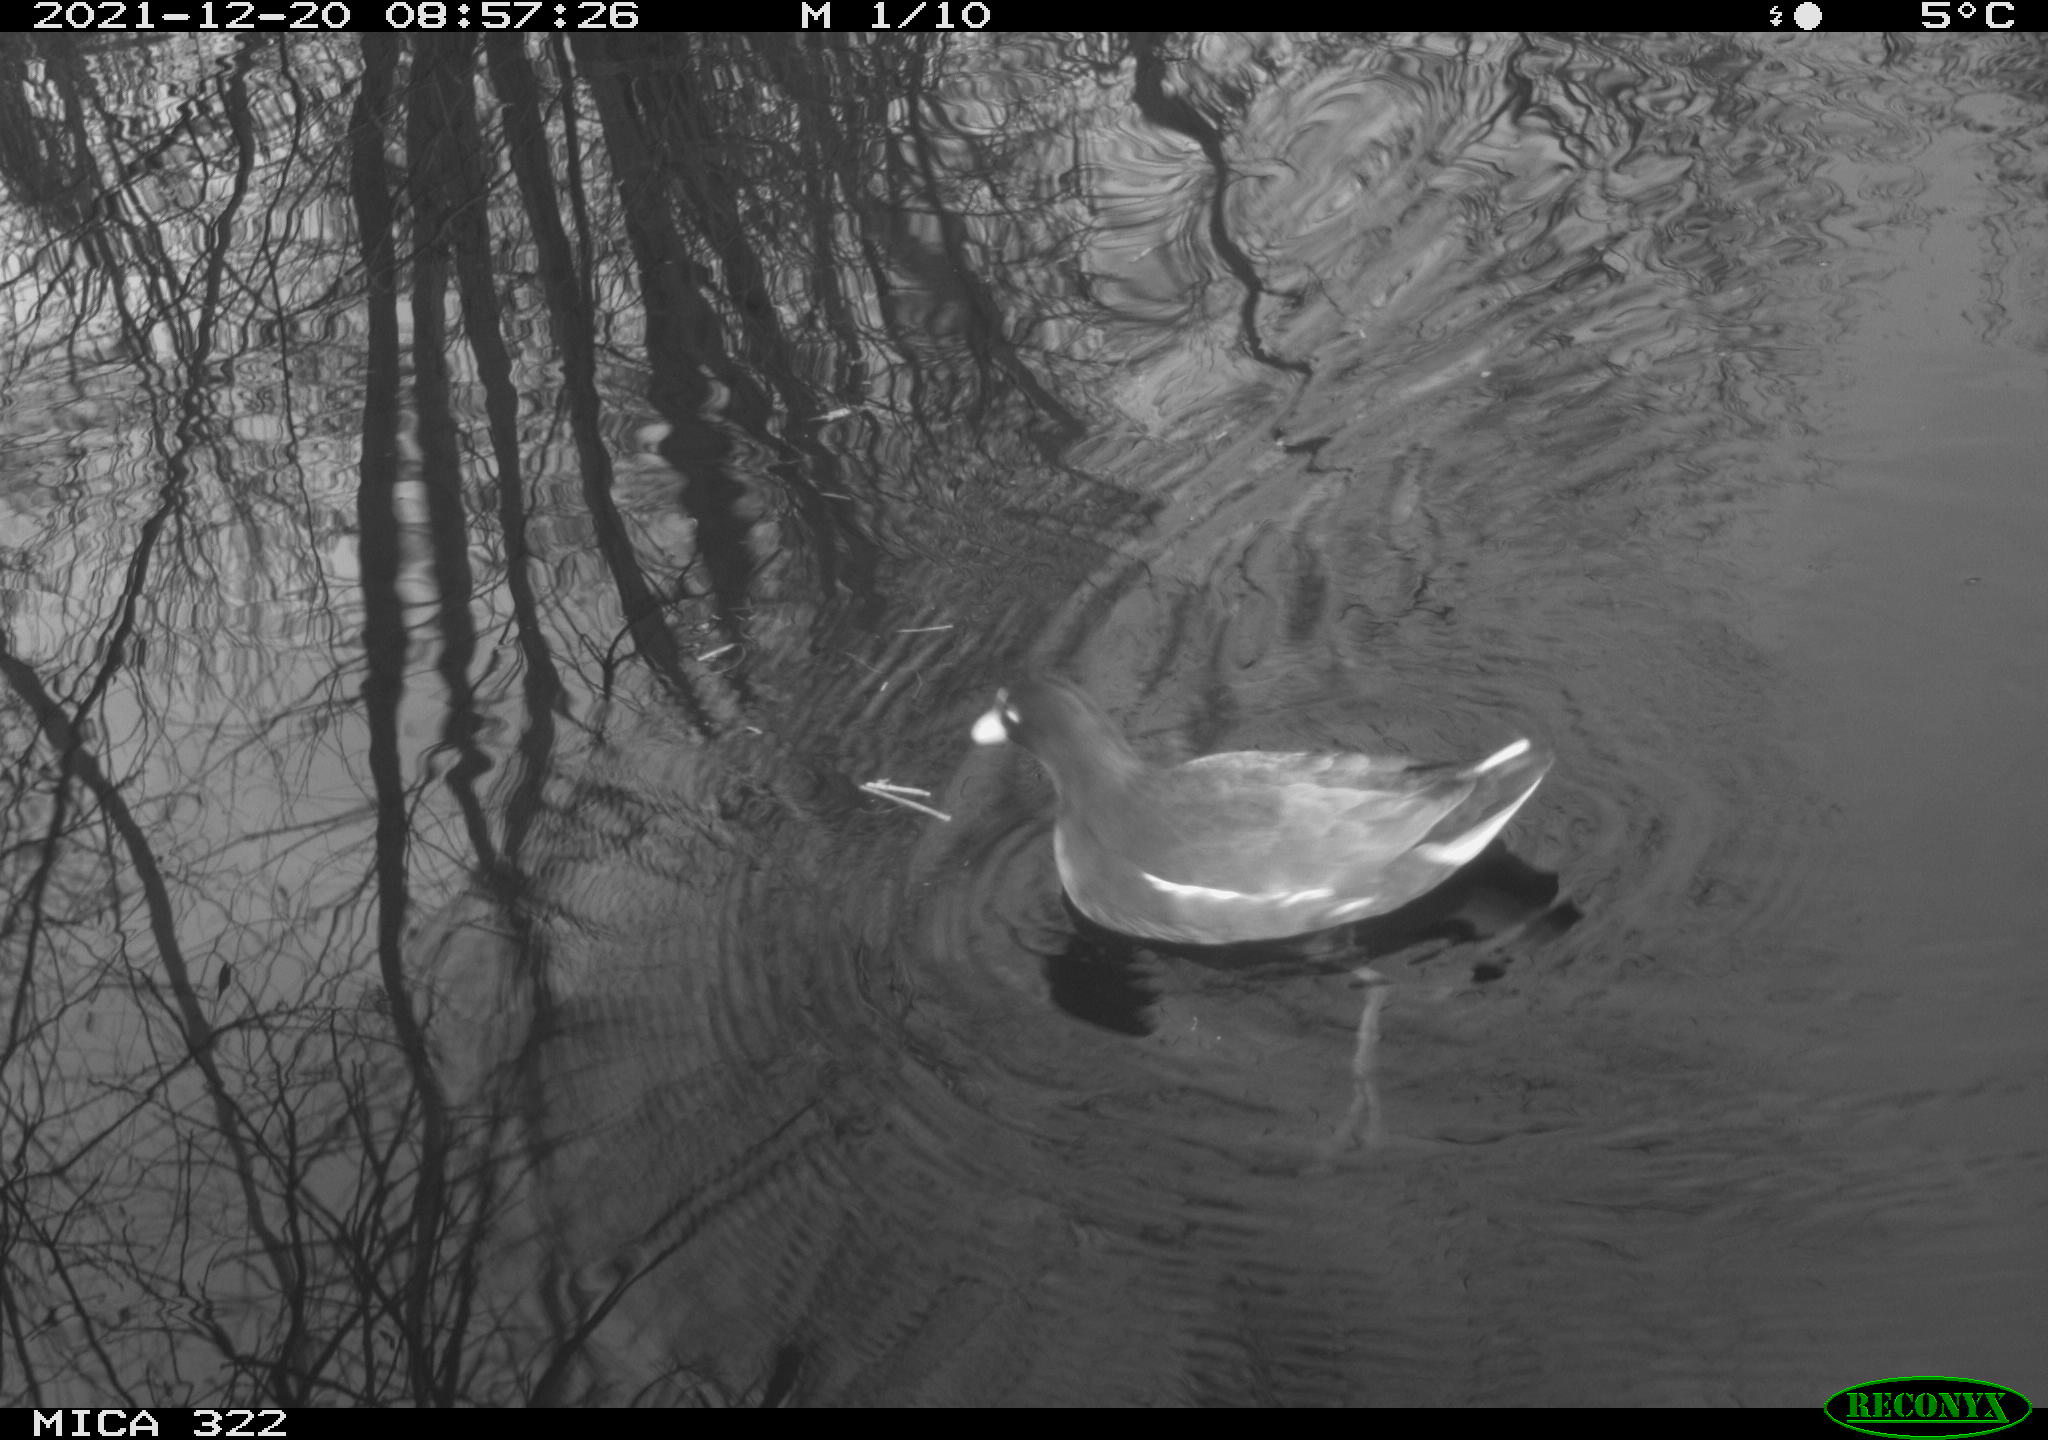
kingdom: Animalia
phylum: Chordata
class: Aves
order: Gruiformes
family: Rallidae
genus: Gallinula
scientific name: Gallinula chloropus
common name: Common moorhen
